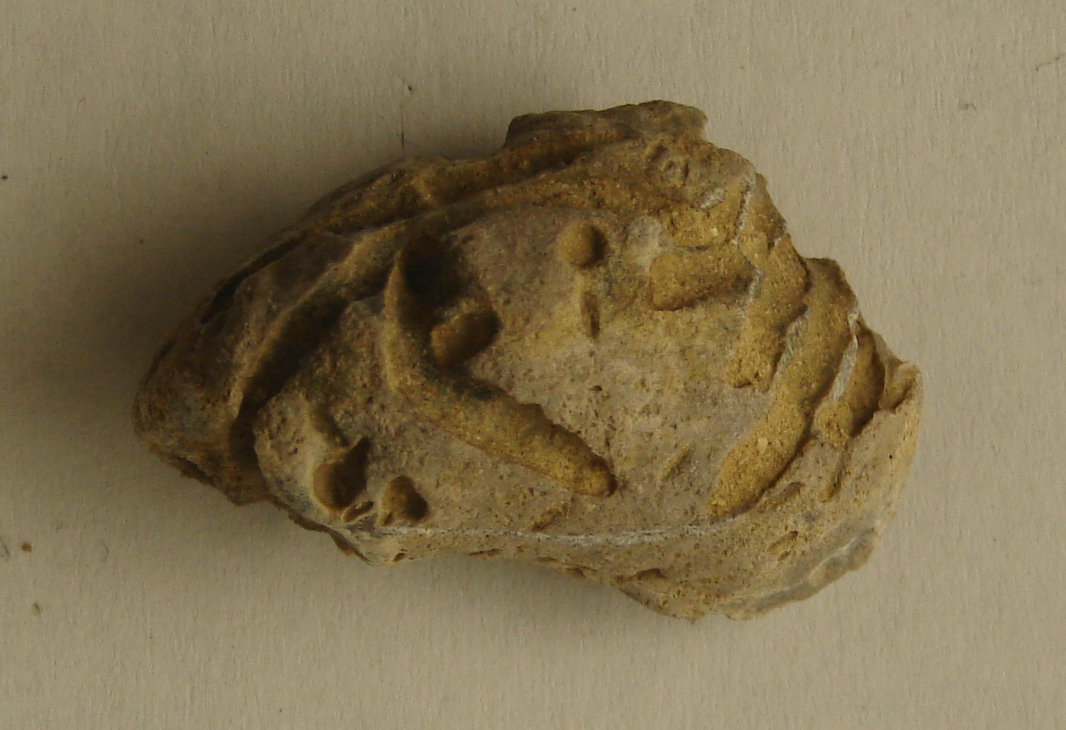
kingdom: Animalia
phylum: Mollusca
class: Bivalvia
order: Ostreida
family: Gryphaeidae
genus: Gryphaea
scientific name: Gryphaea
